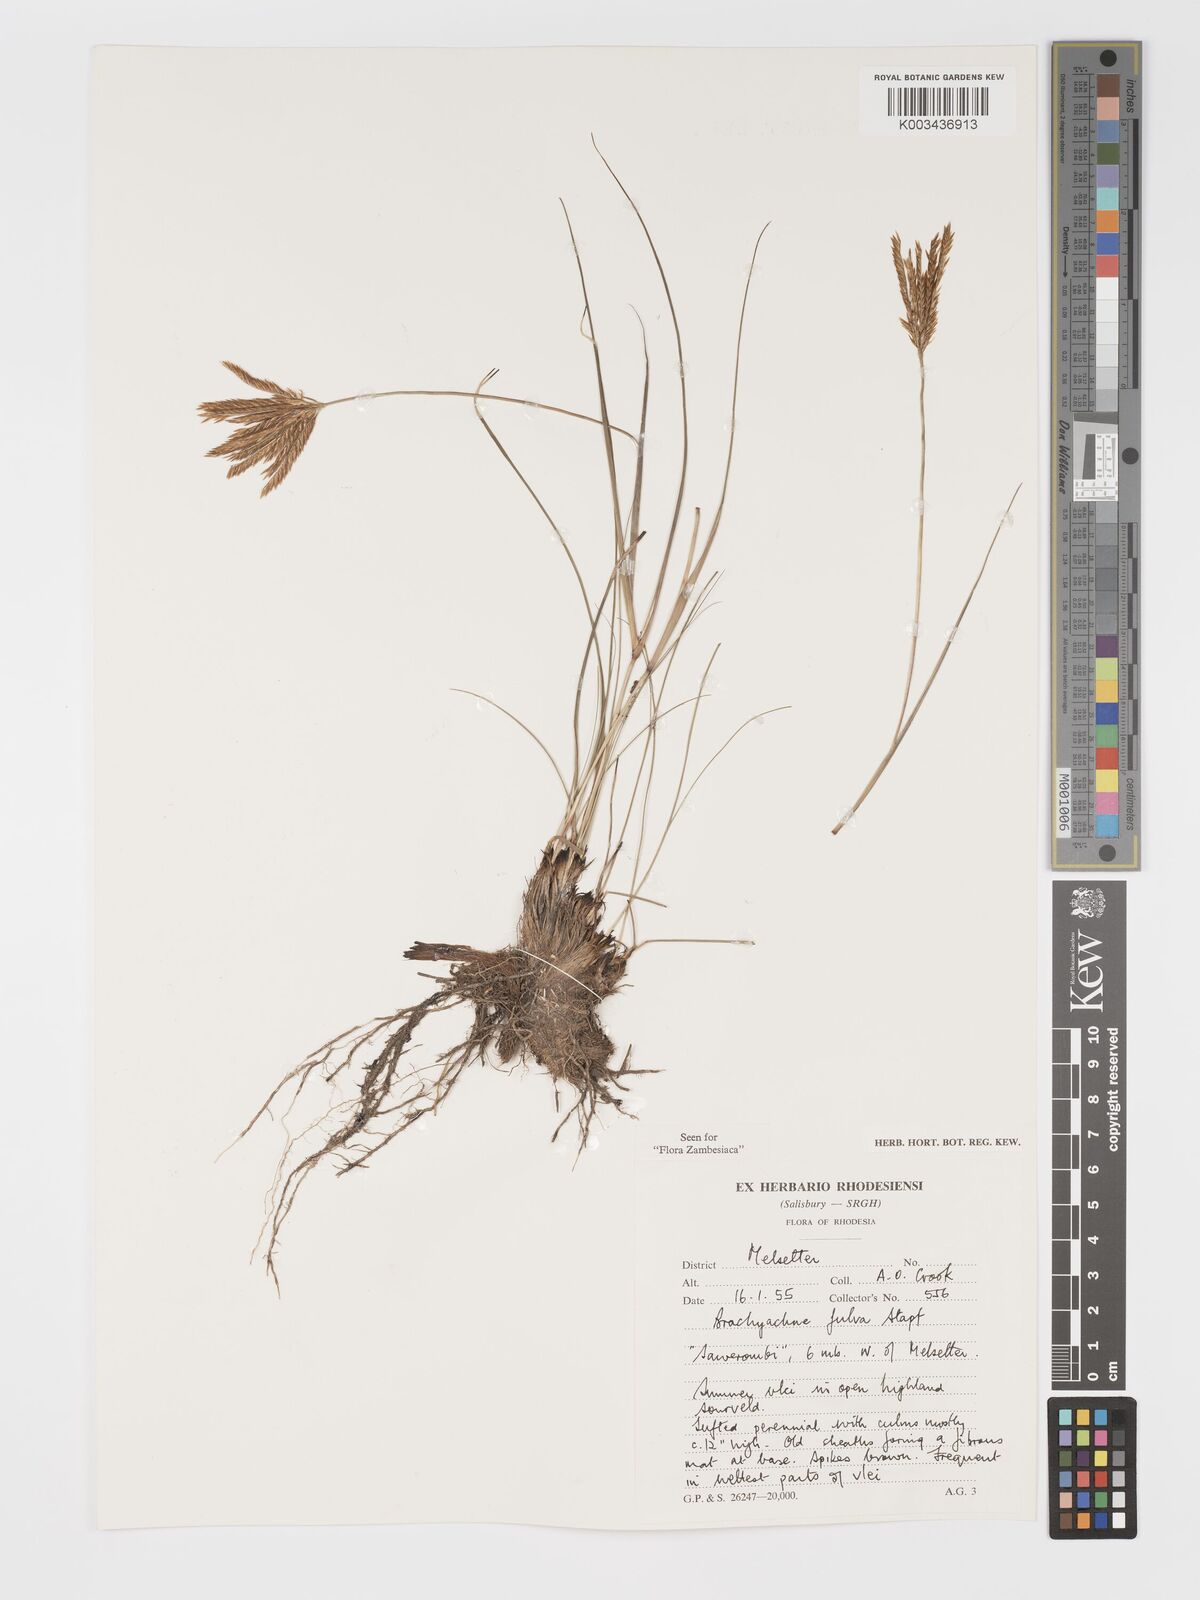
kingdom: Plantae
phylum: Tracheophyta
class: Liliopsida
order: Poales
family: Poaceae
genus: Micrachne
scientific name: Micrachne fulva
